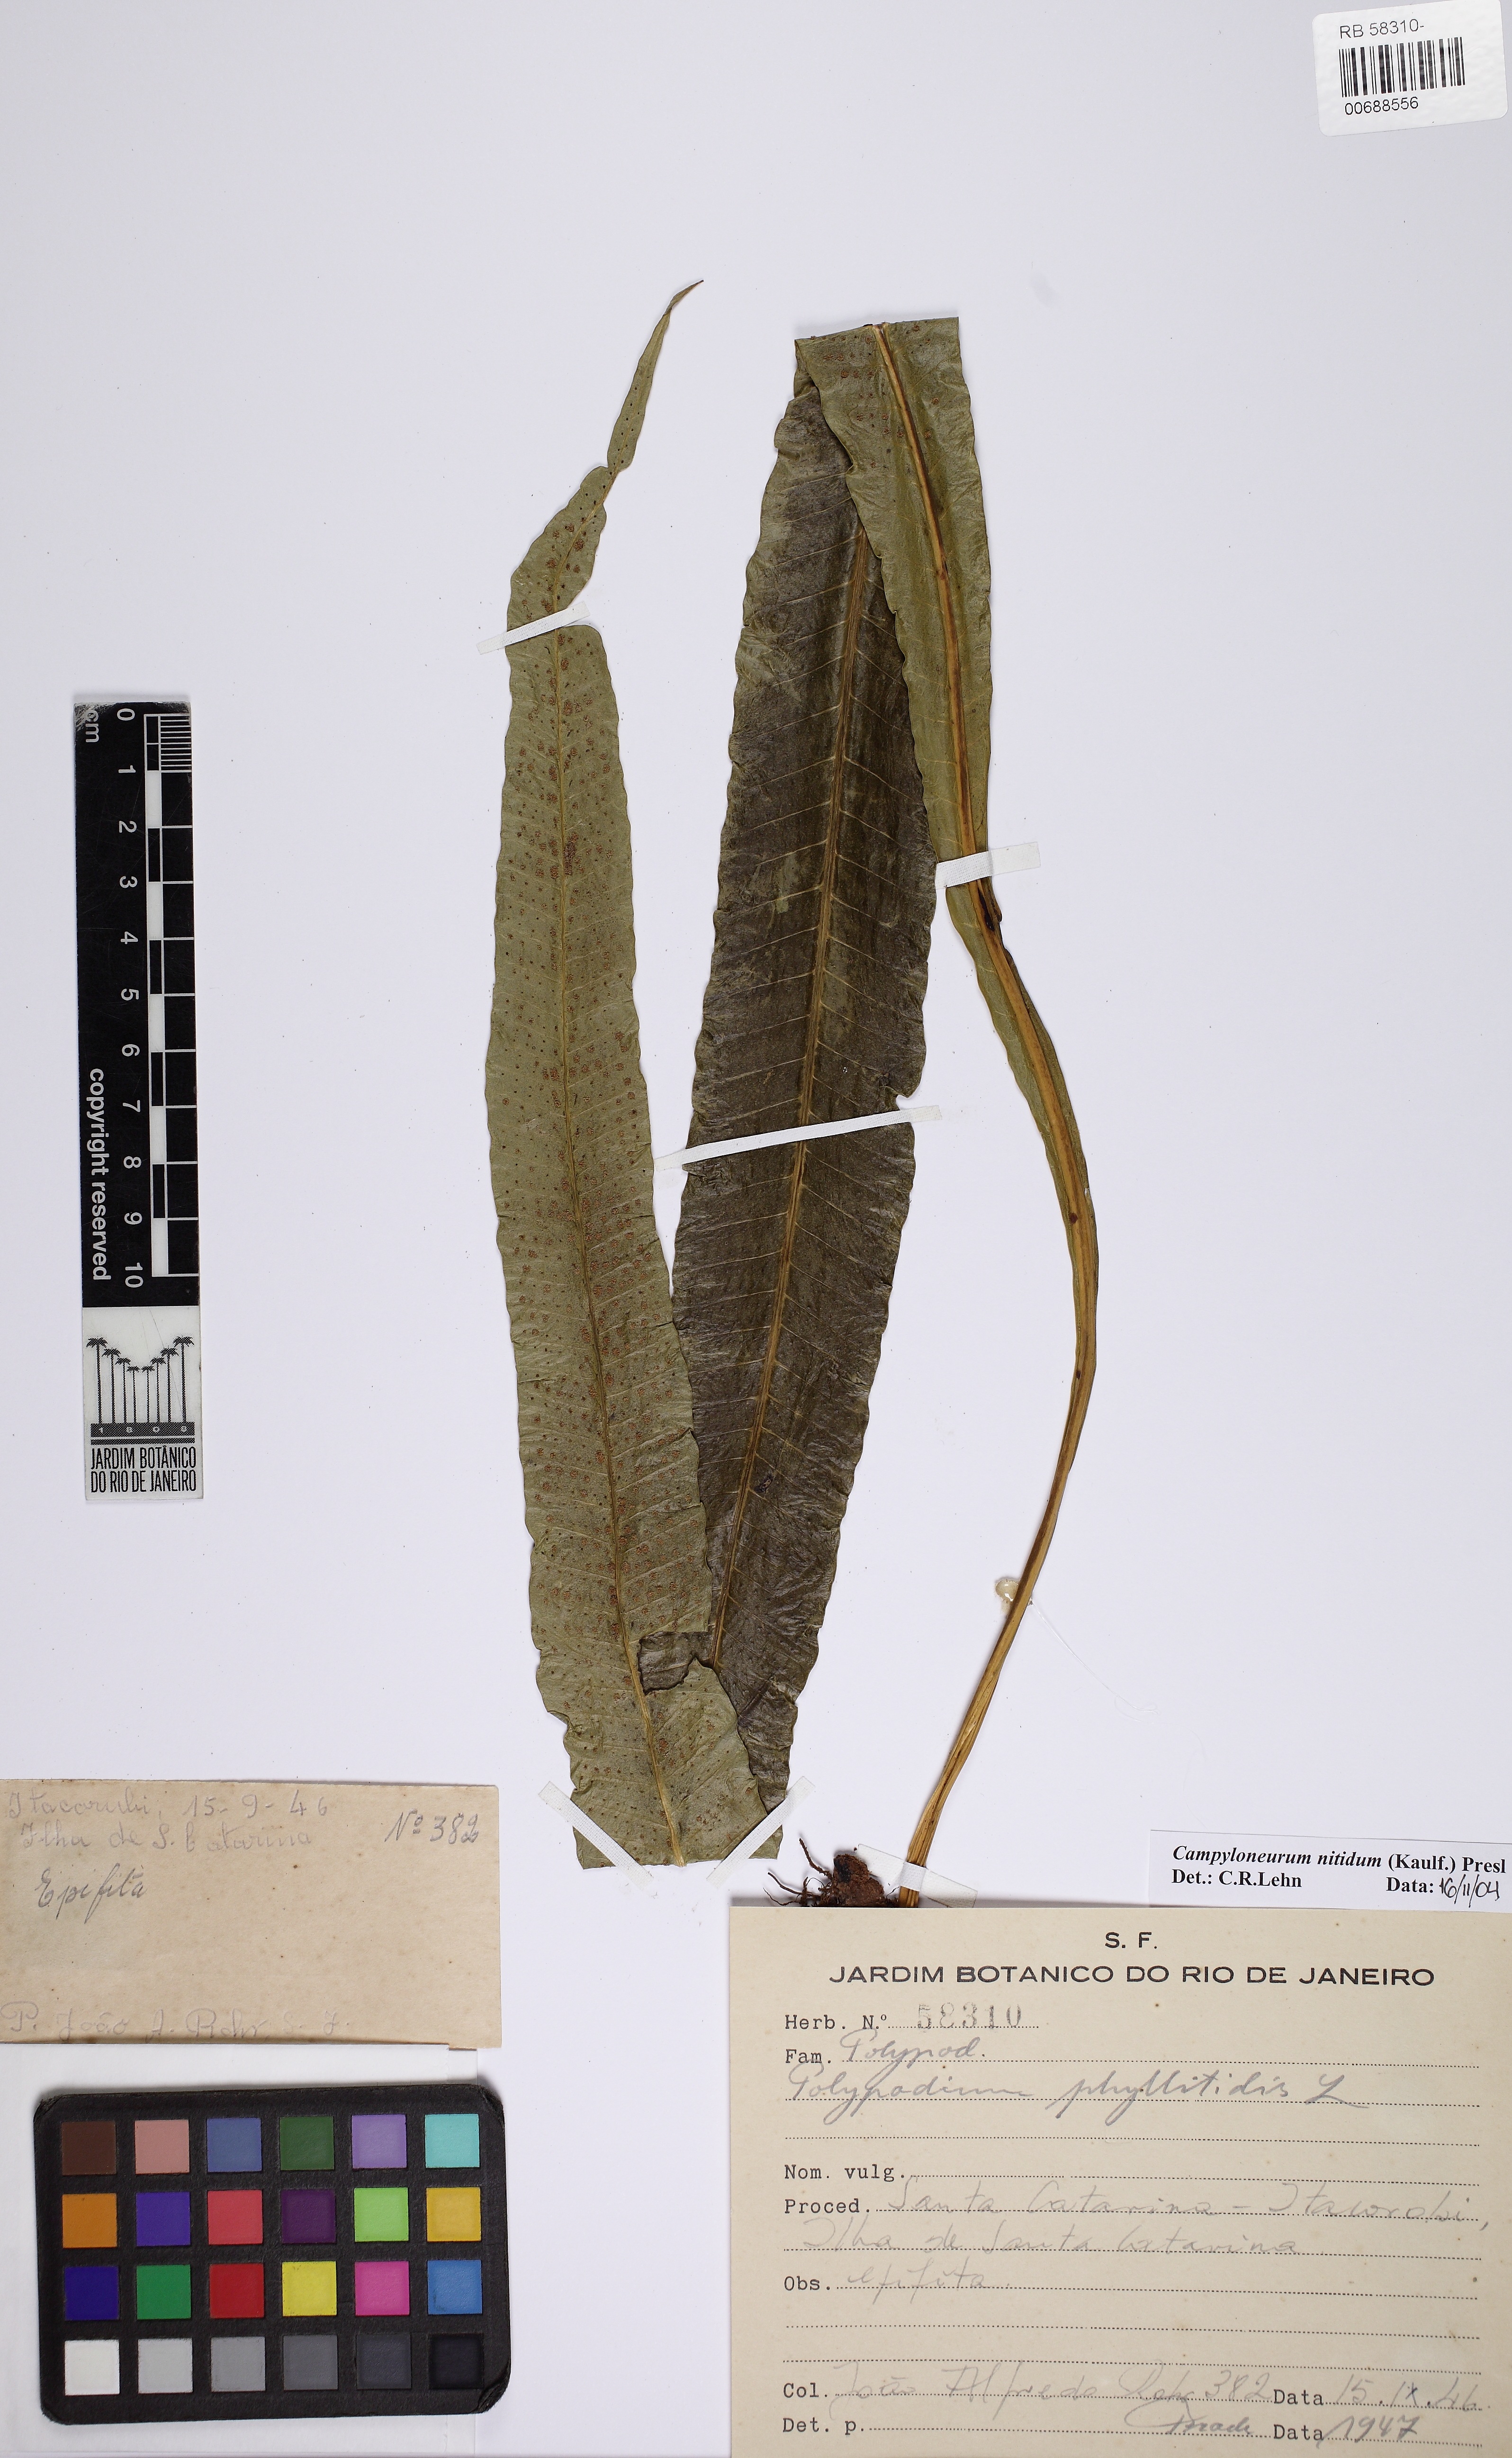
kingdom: Plantae
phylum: Tracheophyta
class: Polypodiopsida
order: Polypodiales
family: Polypodiaceae
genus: Campyloneurum
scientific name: Campyloneurum nitidum
